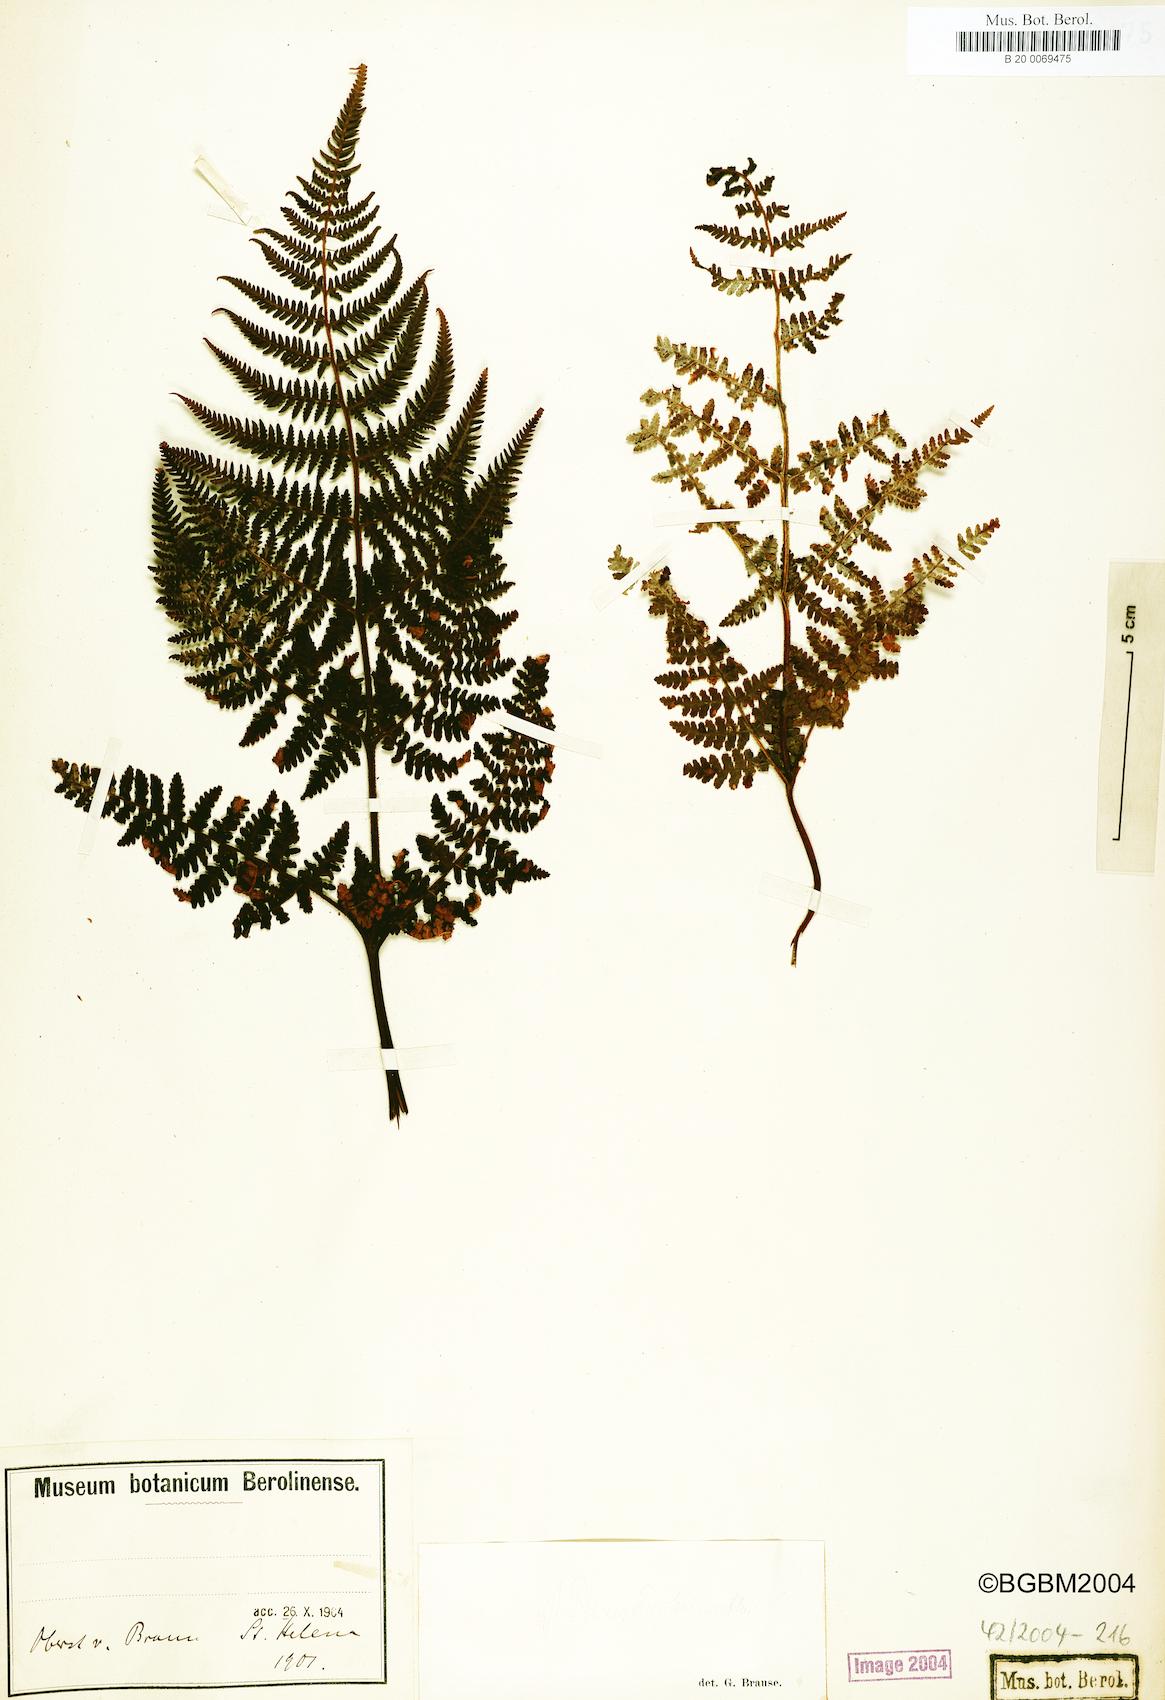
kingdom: Plantae
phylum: Tracheophyta
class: Polypodiopsida
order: Polypodiales
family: Dryopteridaceae
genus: Dryopteris
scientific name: Dryopteris
